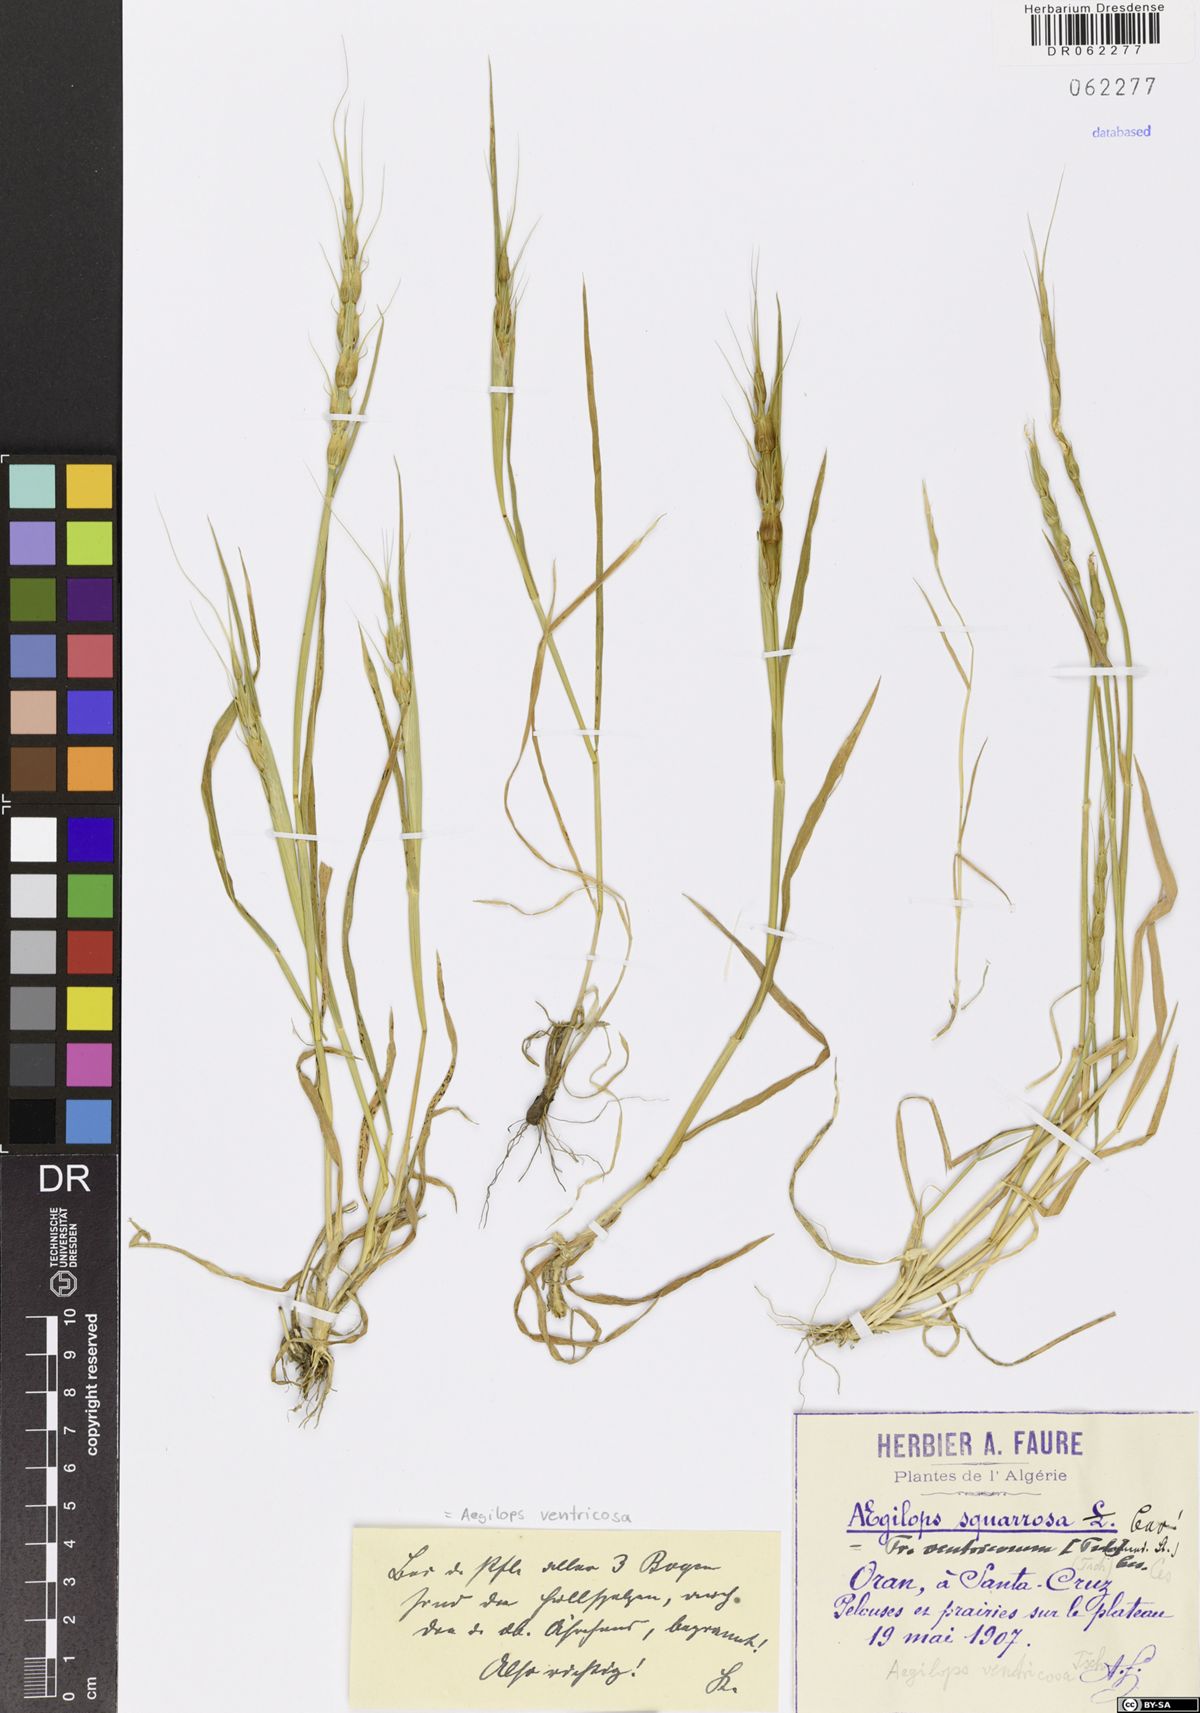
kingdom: Plantae
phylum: Tracheophyta
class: Liliopsida
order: Poales
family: Poaceae
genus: Aegilops
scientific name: Aegilops ventricosa
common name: Swollen goat grass
